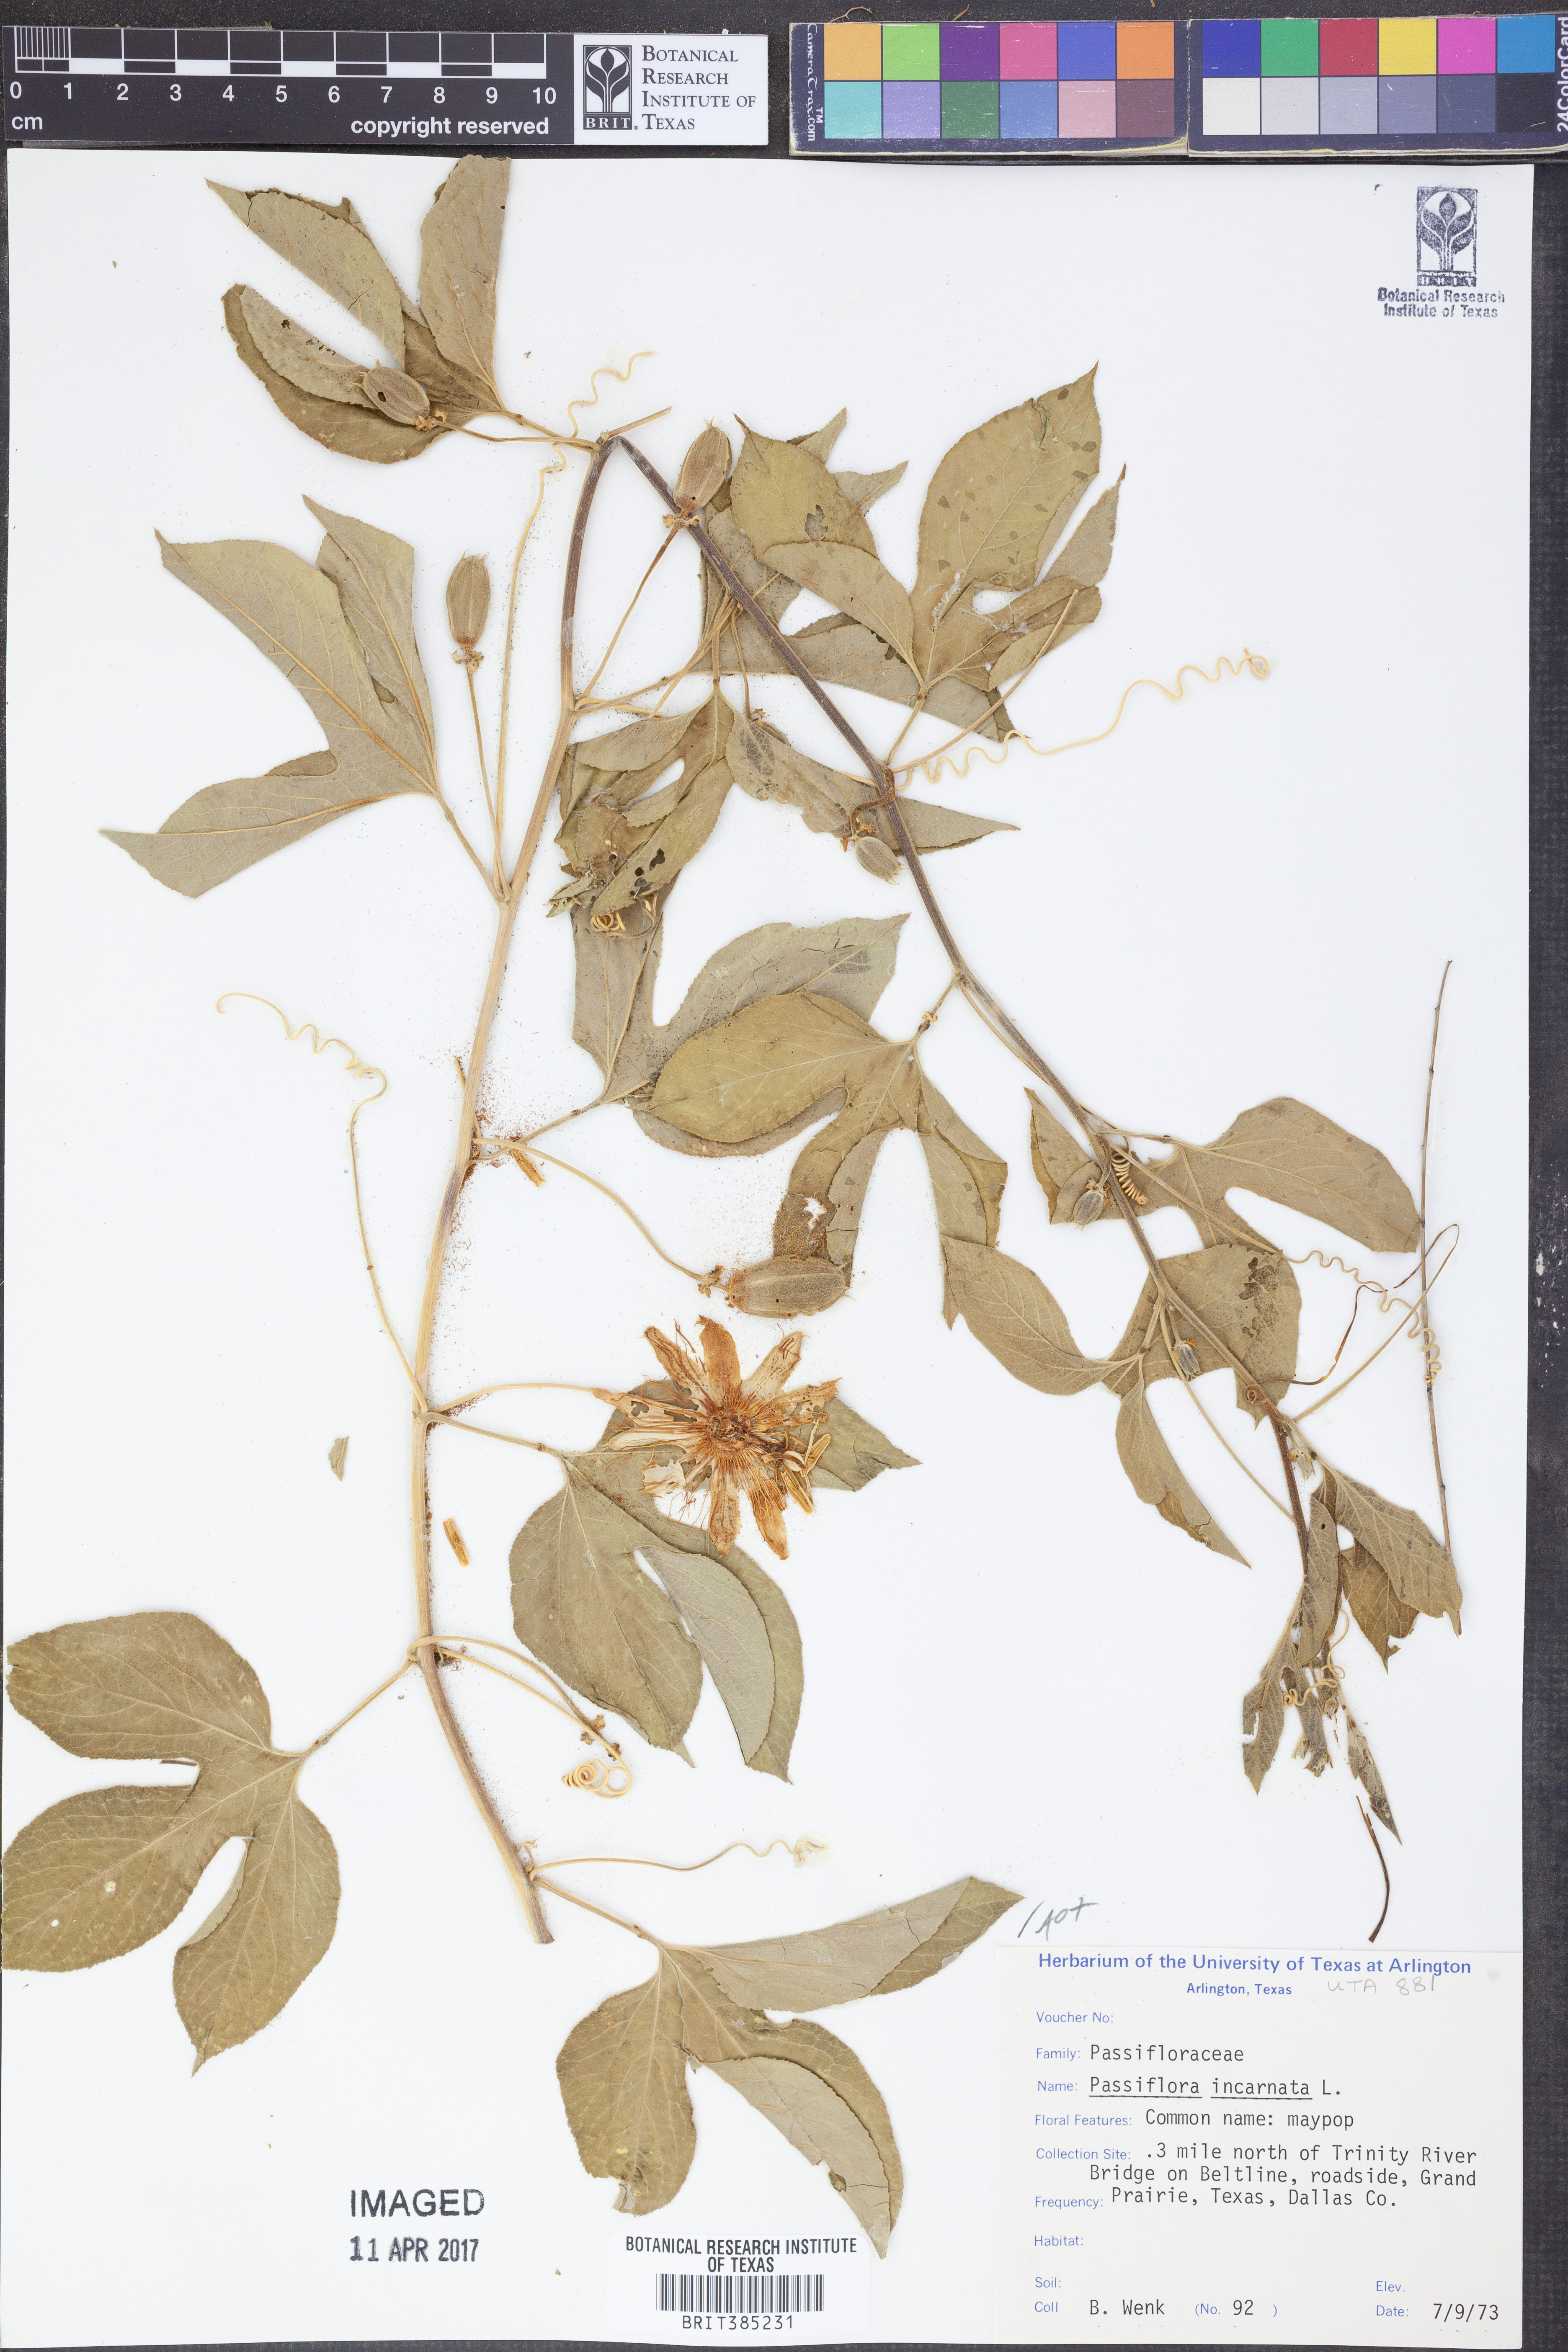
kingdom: Plantae
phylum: Tracheophyta
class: Magnoliopsida
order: Malpighiales
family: Passifloraceae
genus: Passiflora
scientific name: Passiflora incarnata
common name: Apricot-vine
